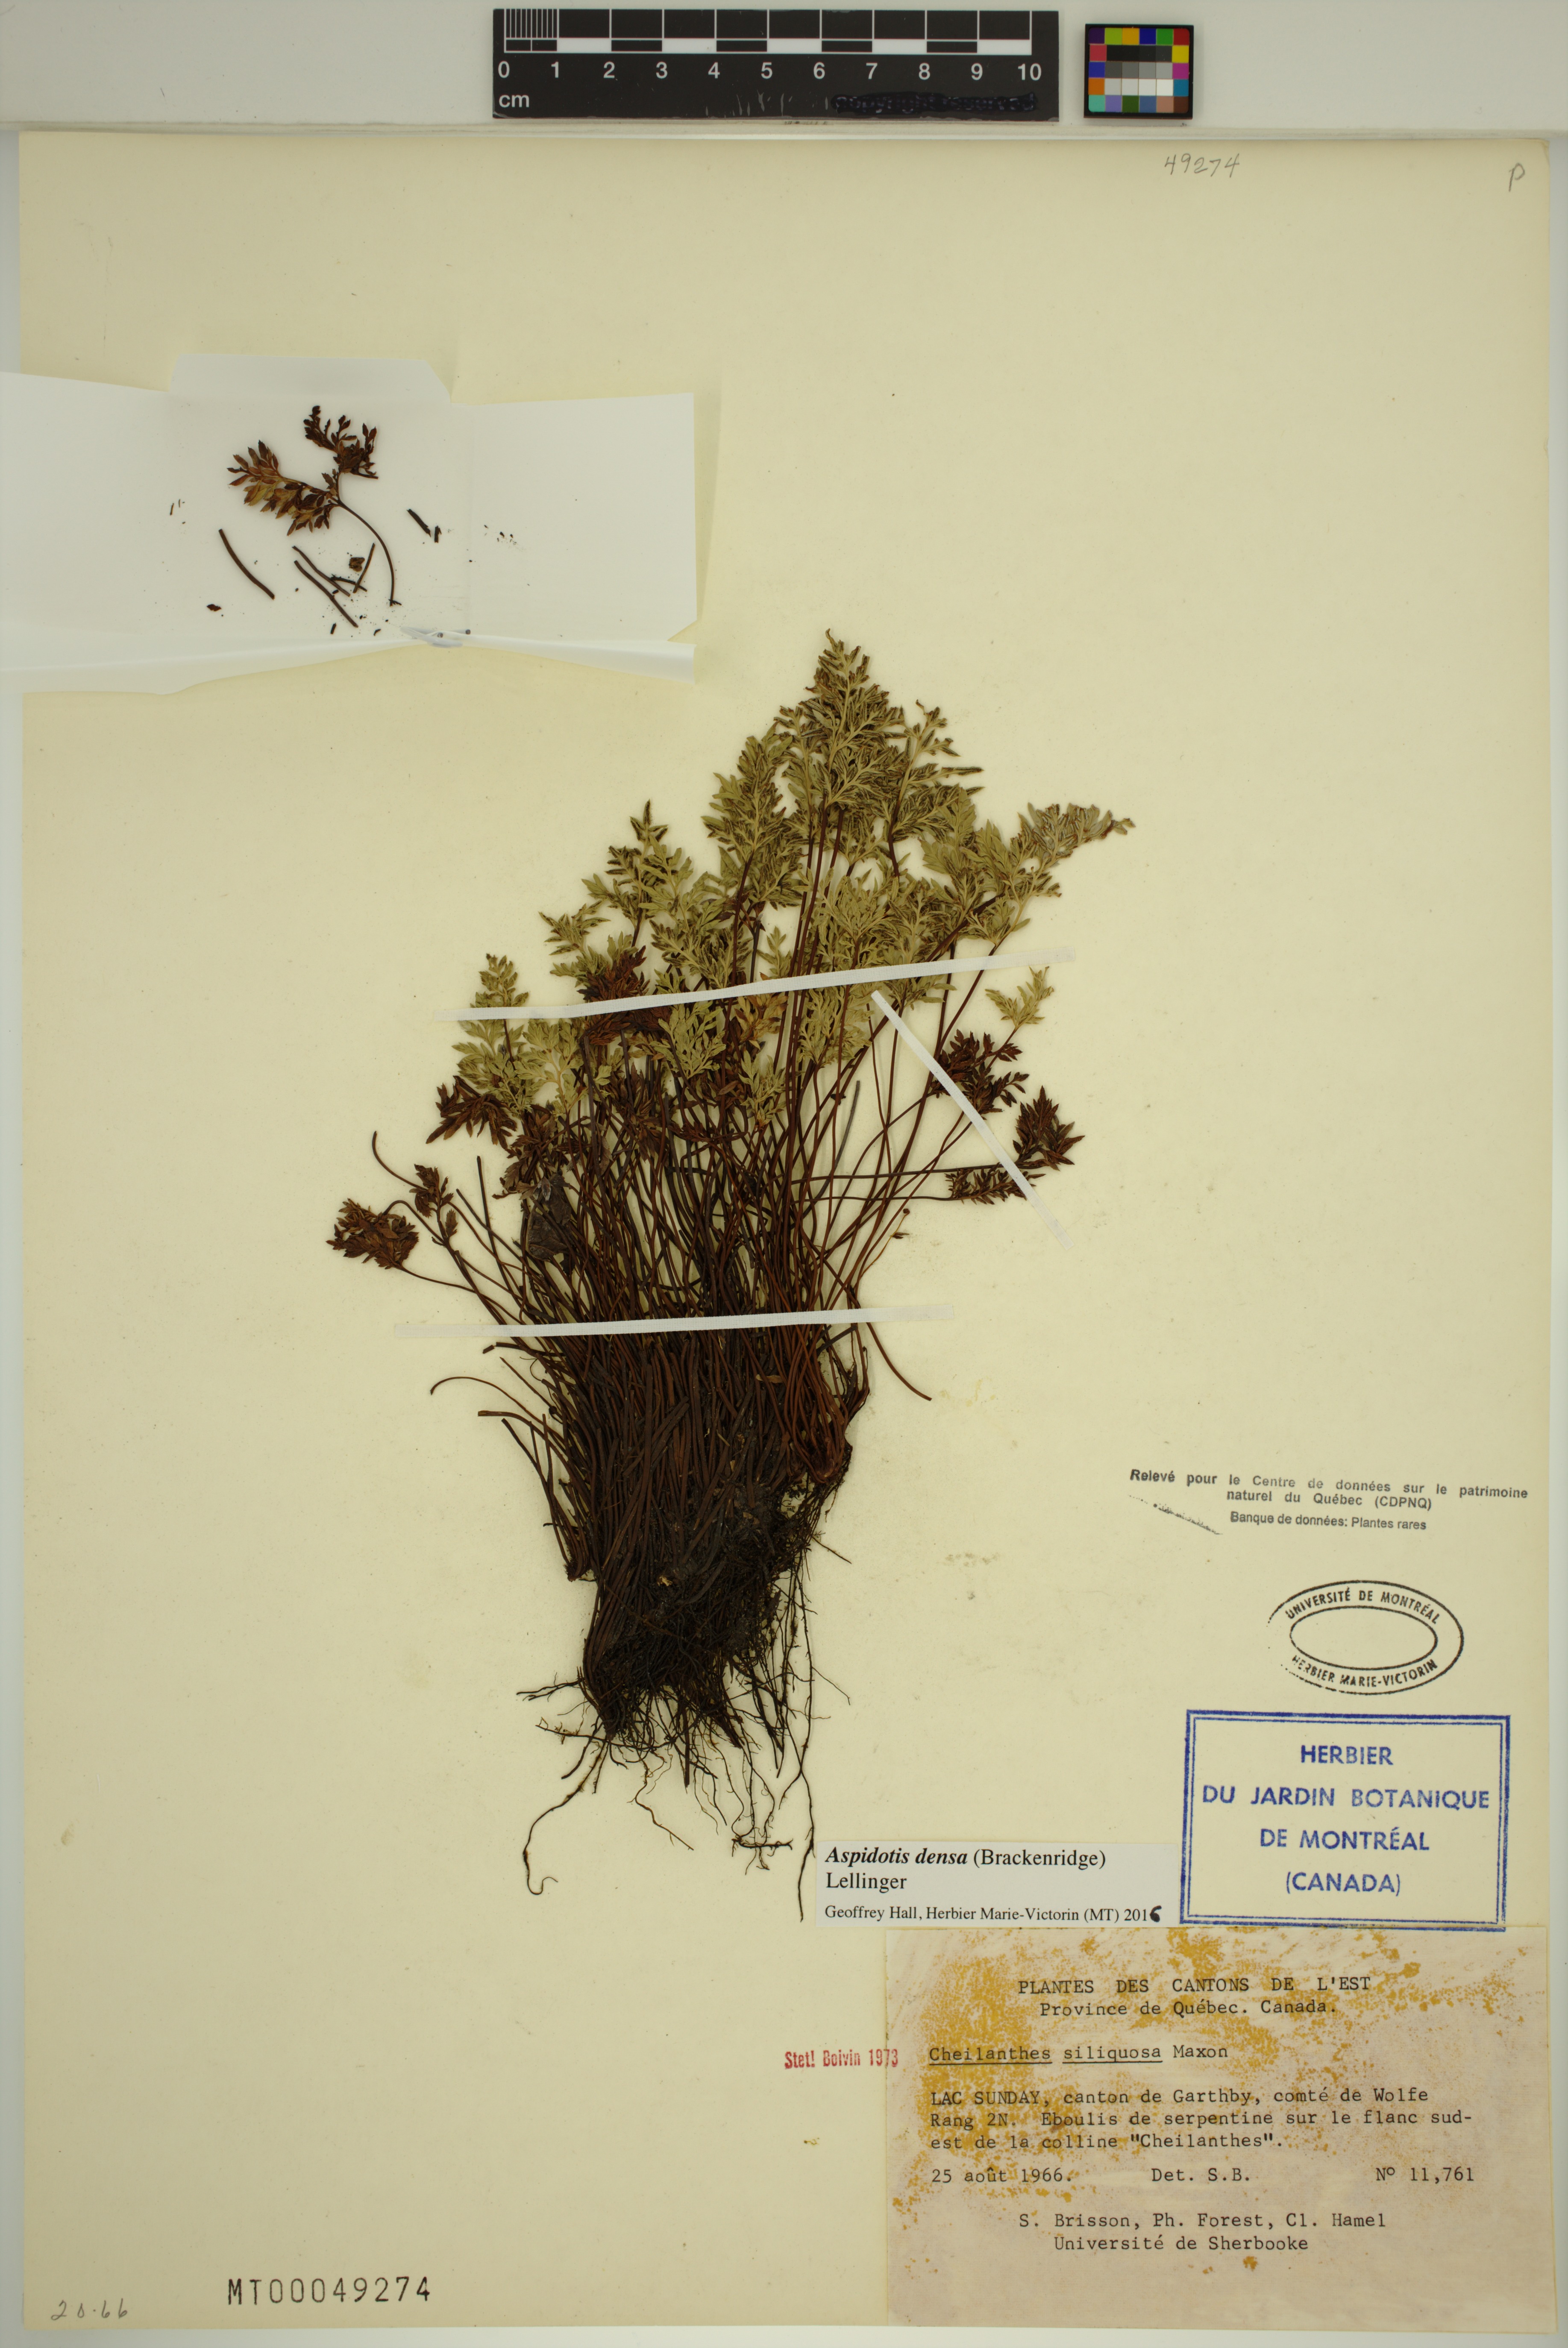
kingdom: Plantae
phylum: Tracheophyta
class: Polypodiopsida
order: Polypodiales
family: Pteridaceae
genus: Aspidotis
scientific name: Aspidotis densa
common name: Indian's dream
